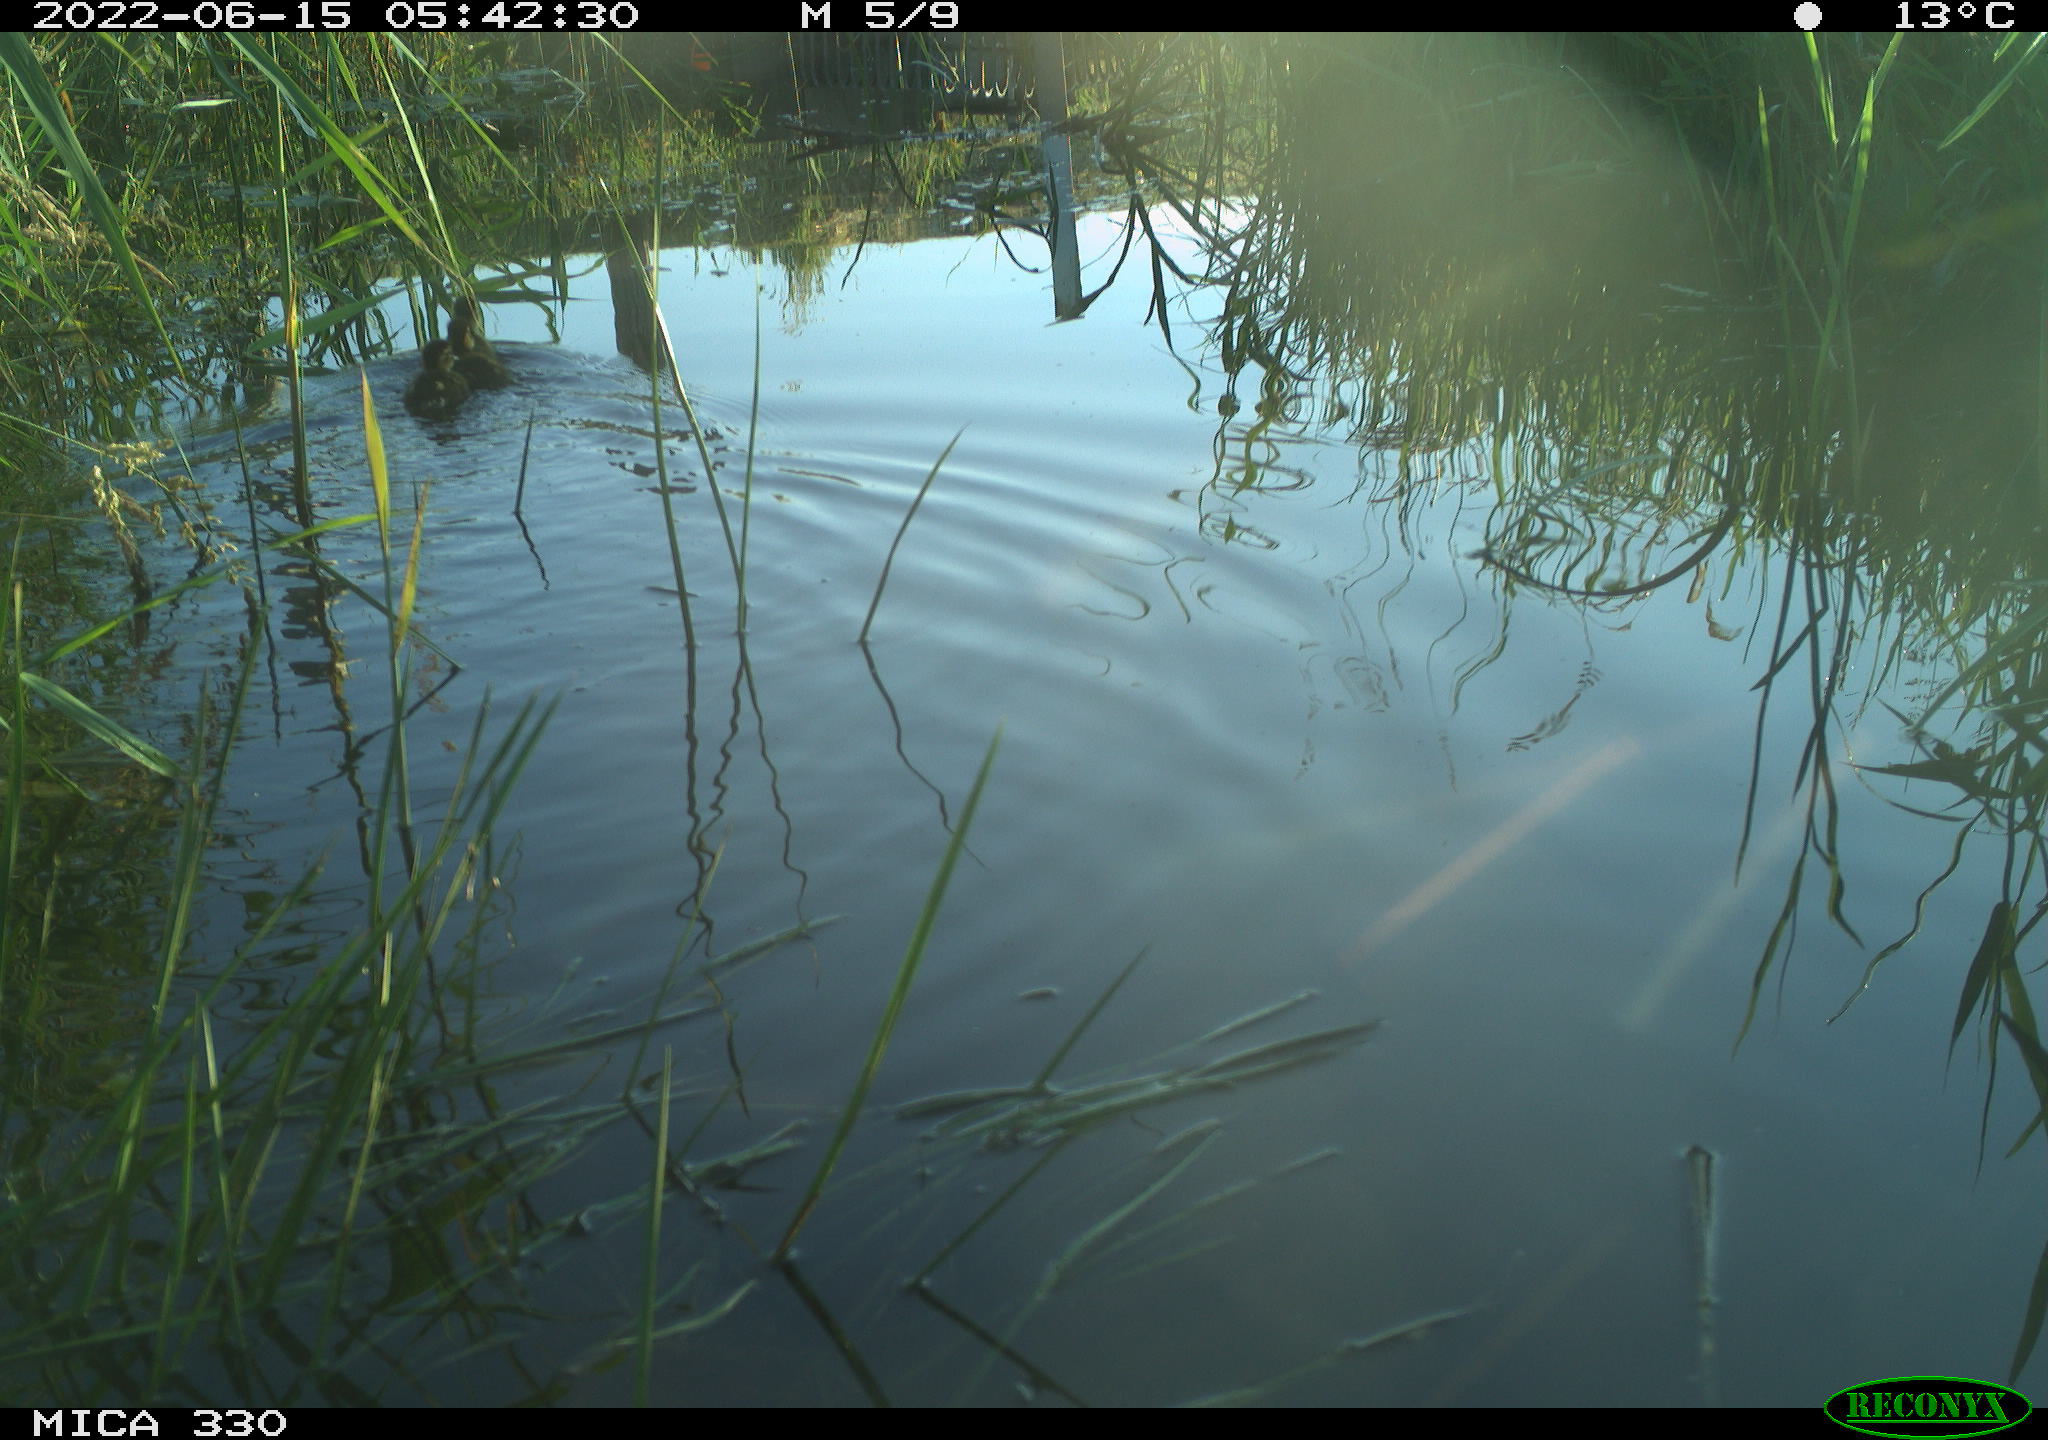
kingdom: Animalia
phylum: Chordata
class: Aves
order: Anseriformes
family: Anatidae
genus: Anas
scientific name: Anas platyrhynchos
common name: Mallard
